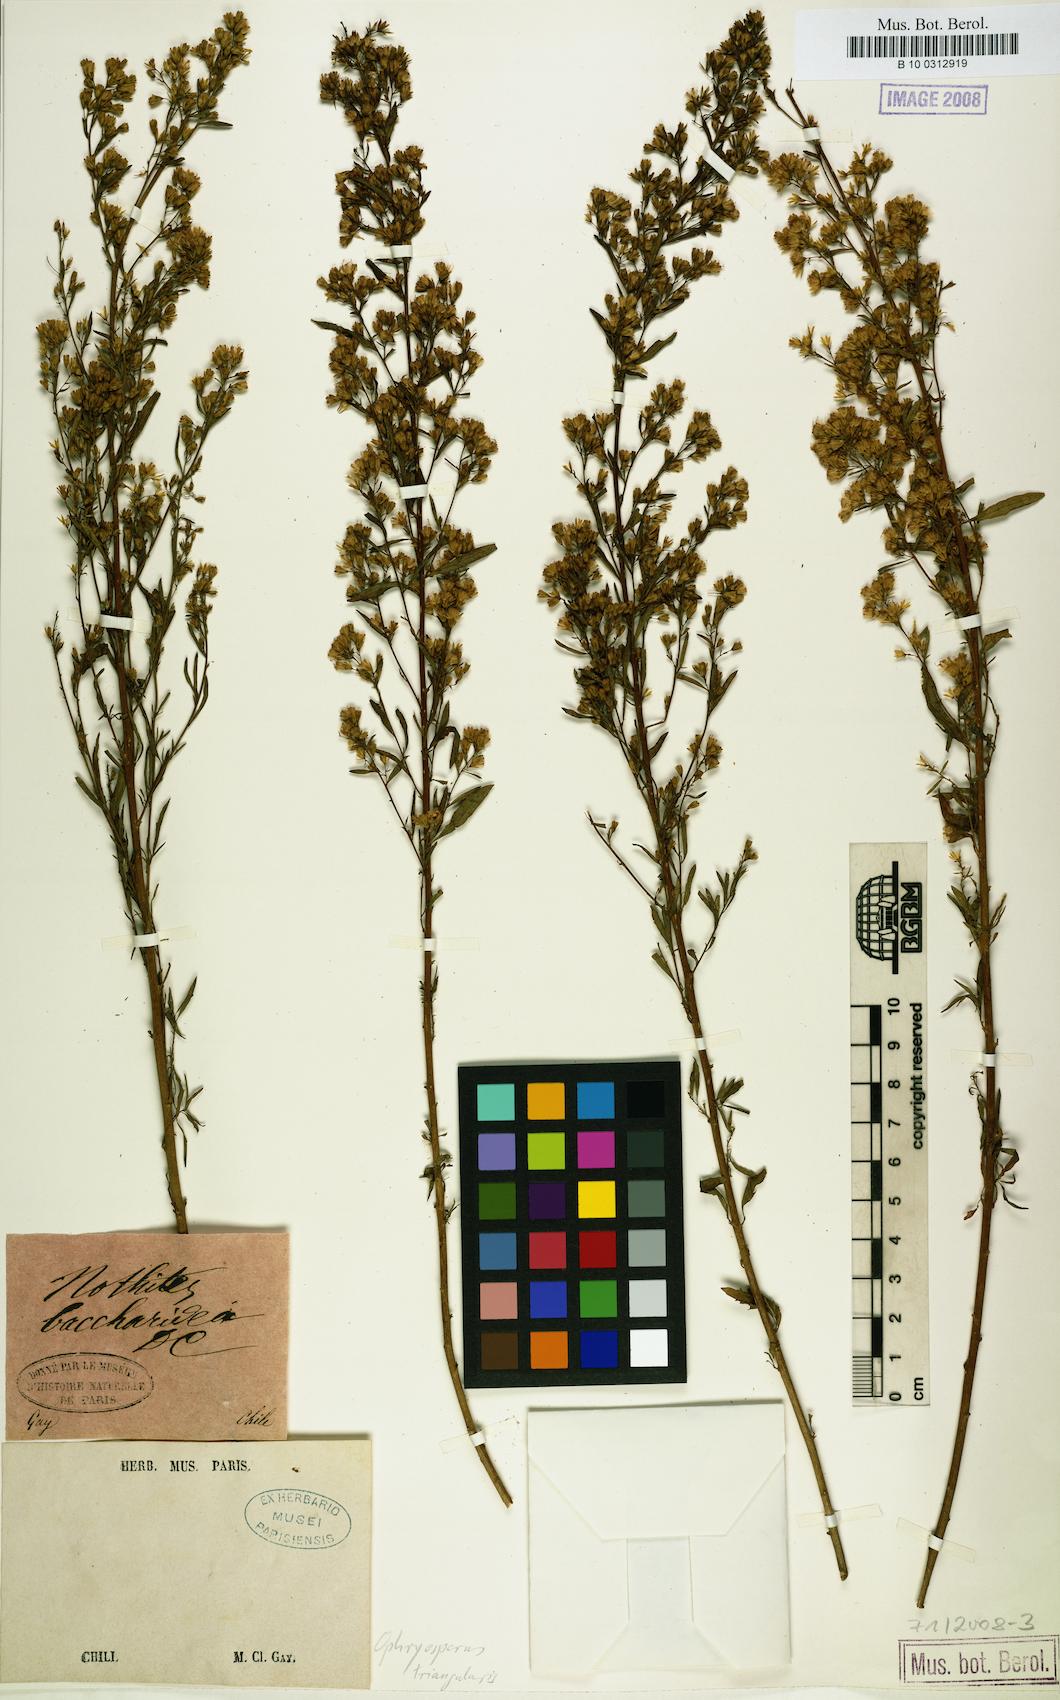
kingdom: Plantae
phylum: Tracheophyta
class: Magnoliopsida
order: Asterales
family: Asteraceae
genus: Ophryosporus
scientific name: Ophryosporus triangularis
